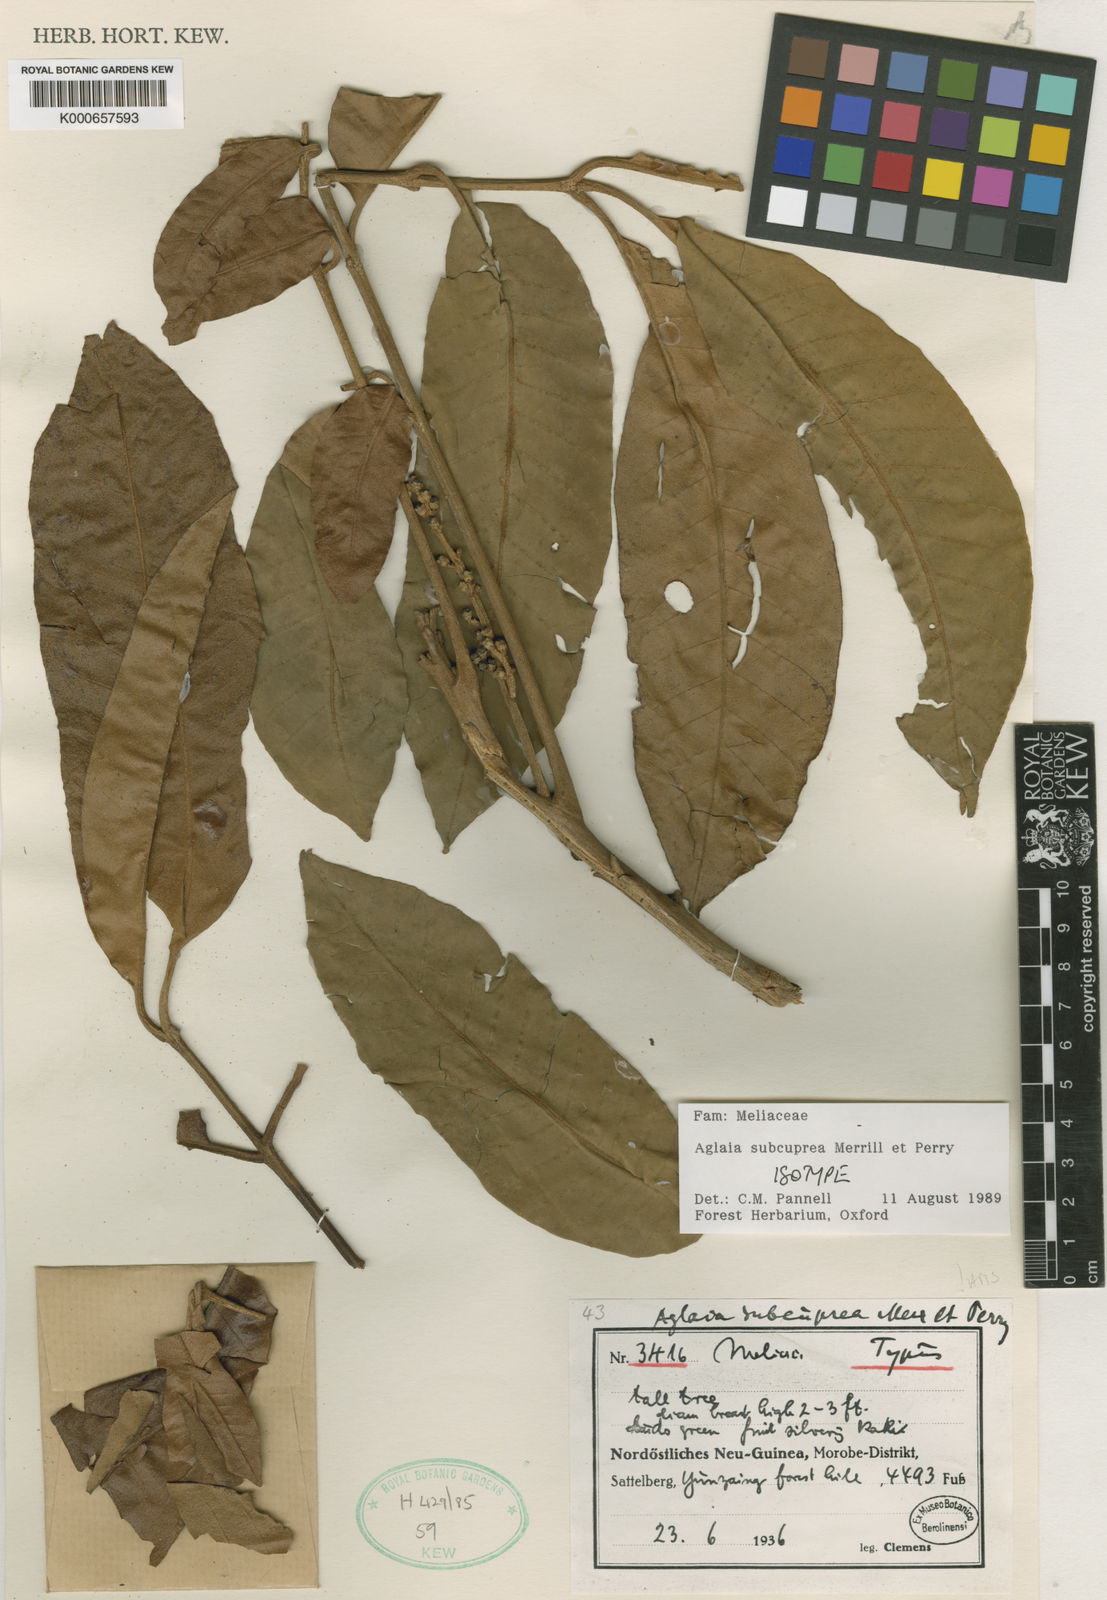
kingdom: Plantae
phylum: Tracheophyta
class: Magnoliopsida
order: Sapindales
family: Meliaceae
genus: Aglaia
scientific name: Aglaia subcuprea
